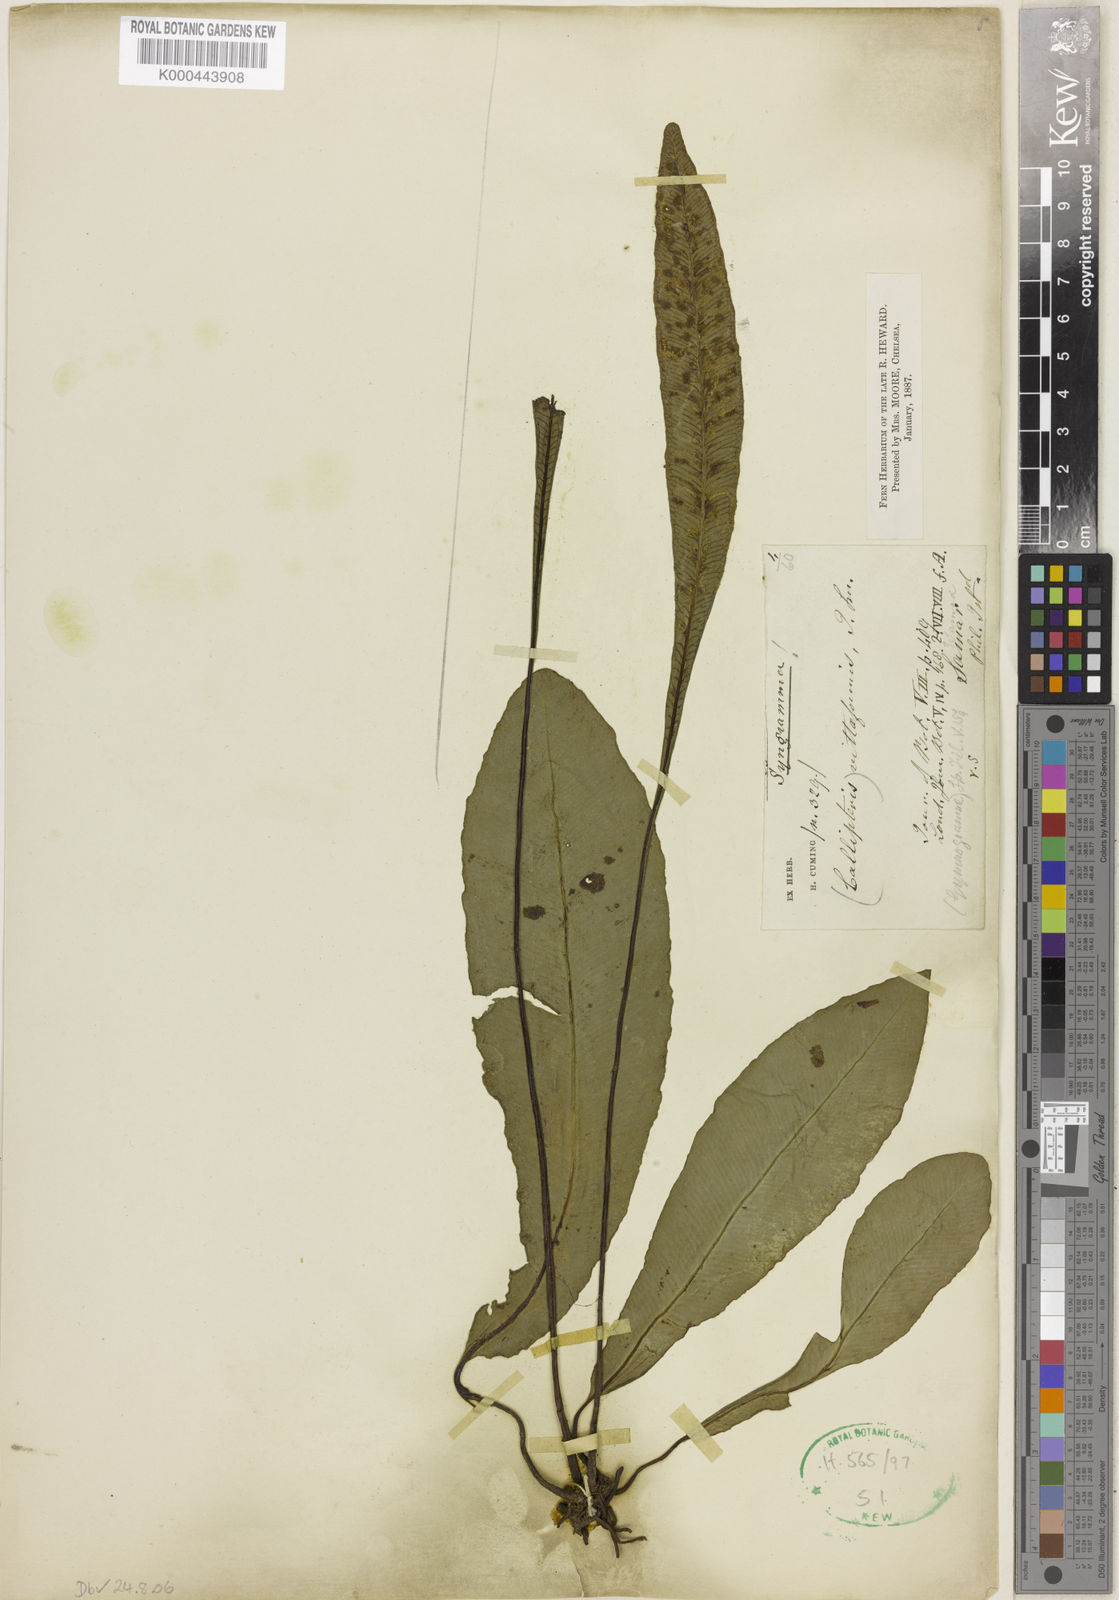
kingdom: Plantae
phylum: Tracheophyta
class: Polypodiopsida
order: Polypodiales
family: Pteridaceae
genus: Syngramma
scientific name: Syngramma vittiformis
